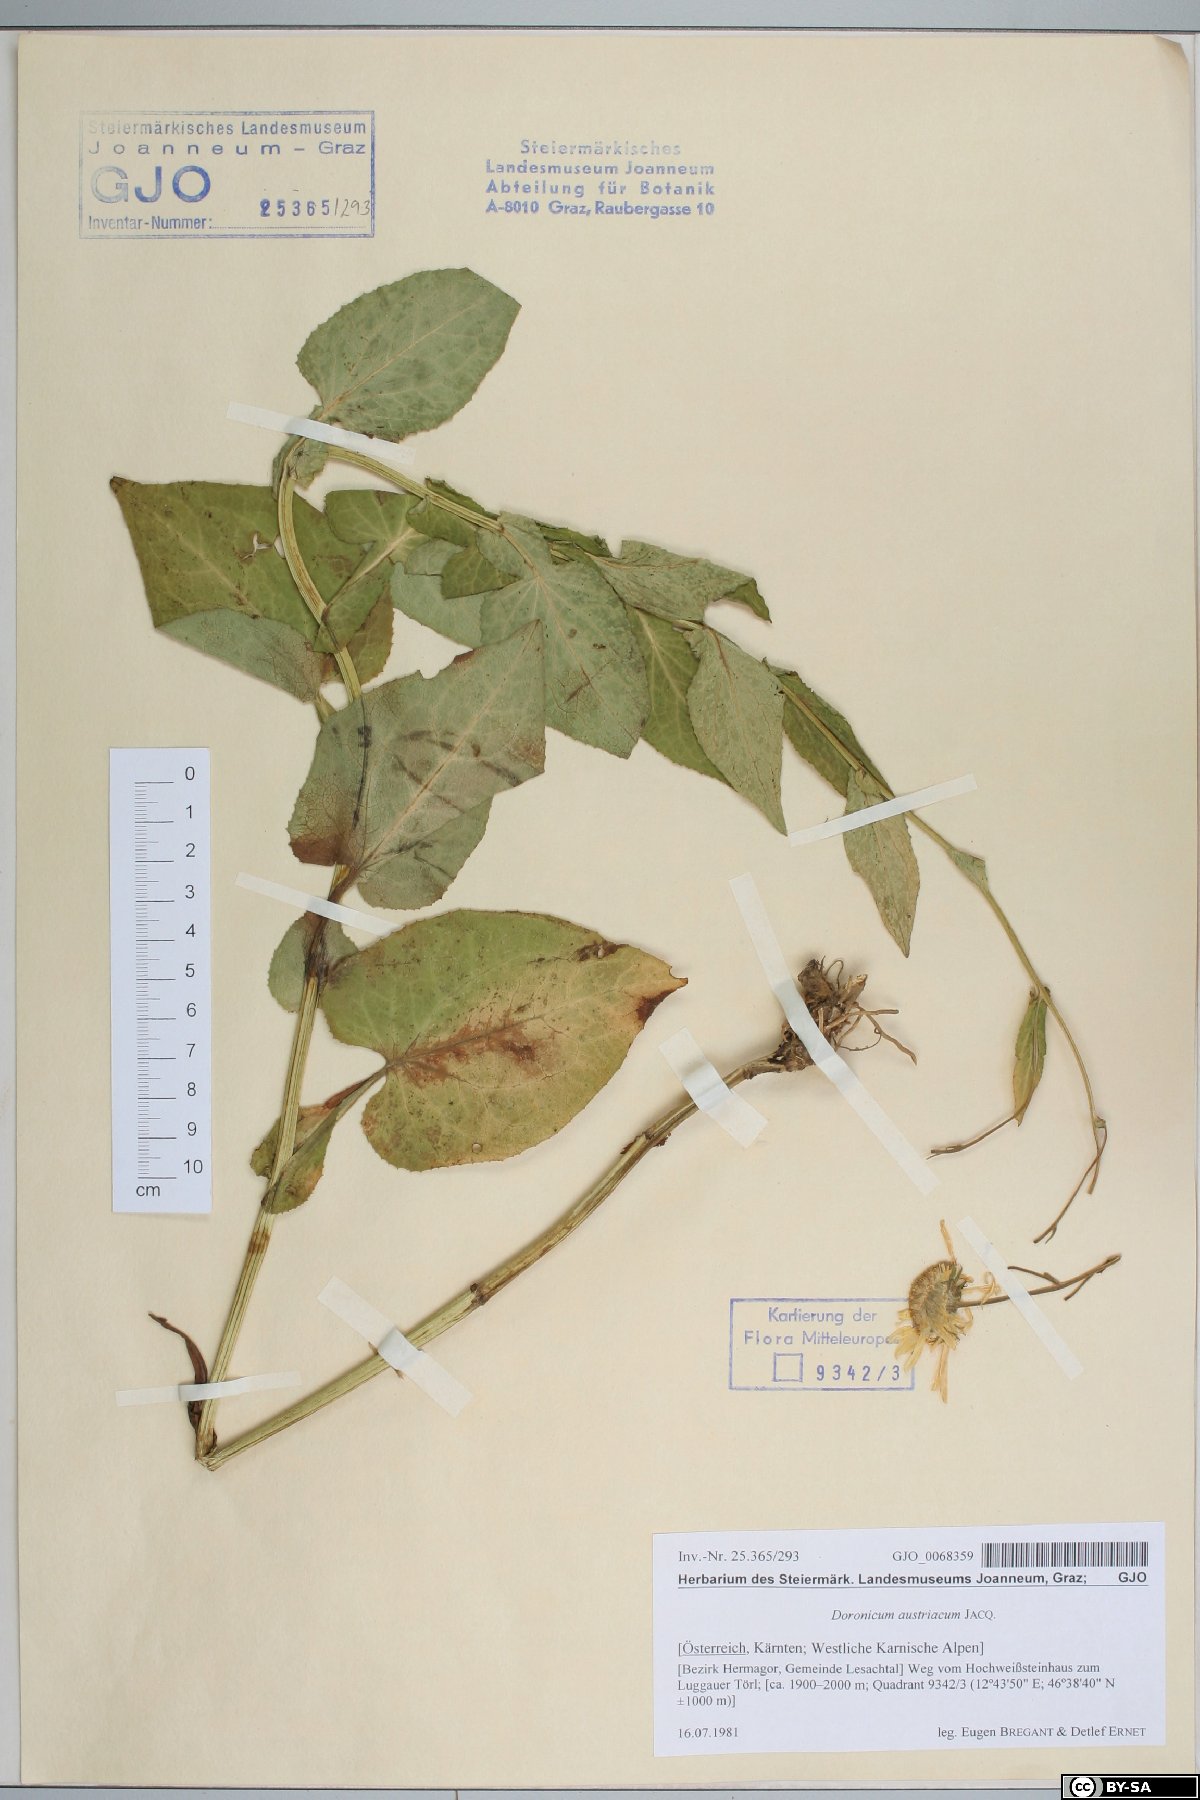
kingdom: Plantae
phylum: Tracheophyta
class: Magnoliopsida
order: Asterales
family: Asteraceae
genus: Doronicum
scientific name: Doronicum austriacum
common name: Austrian leopard's-bane
